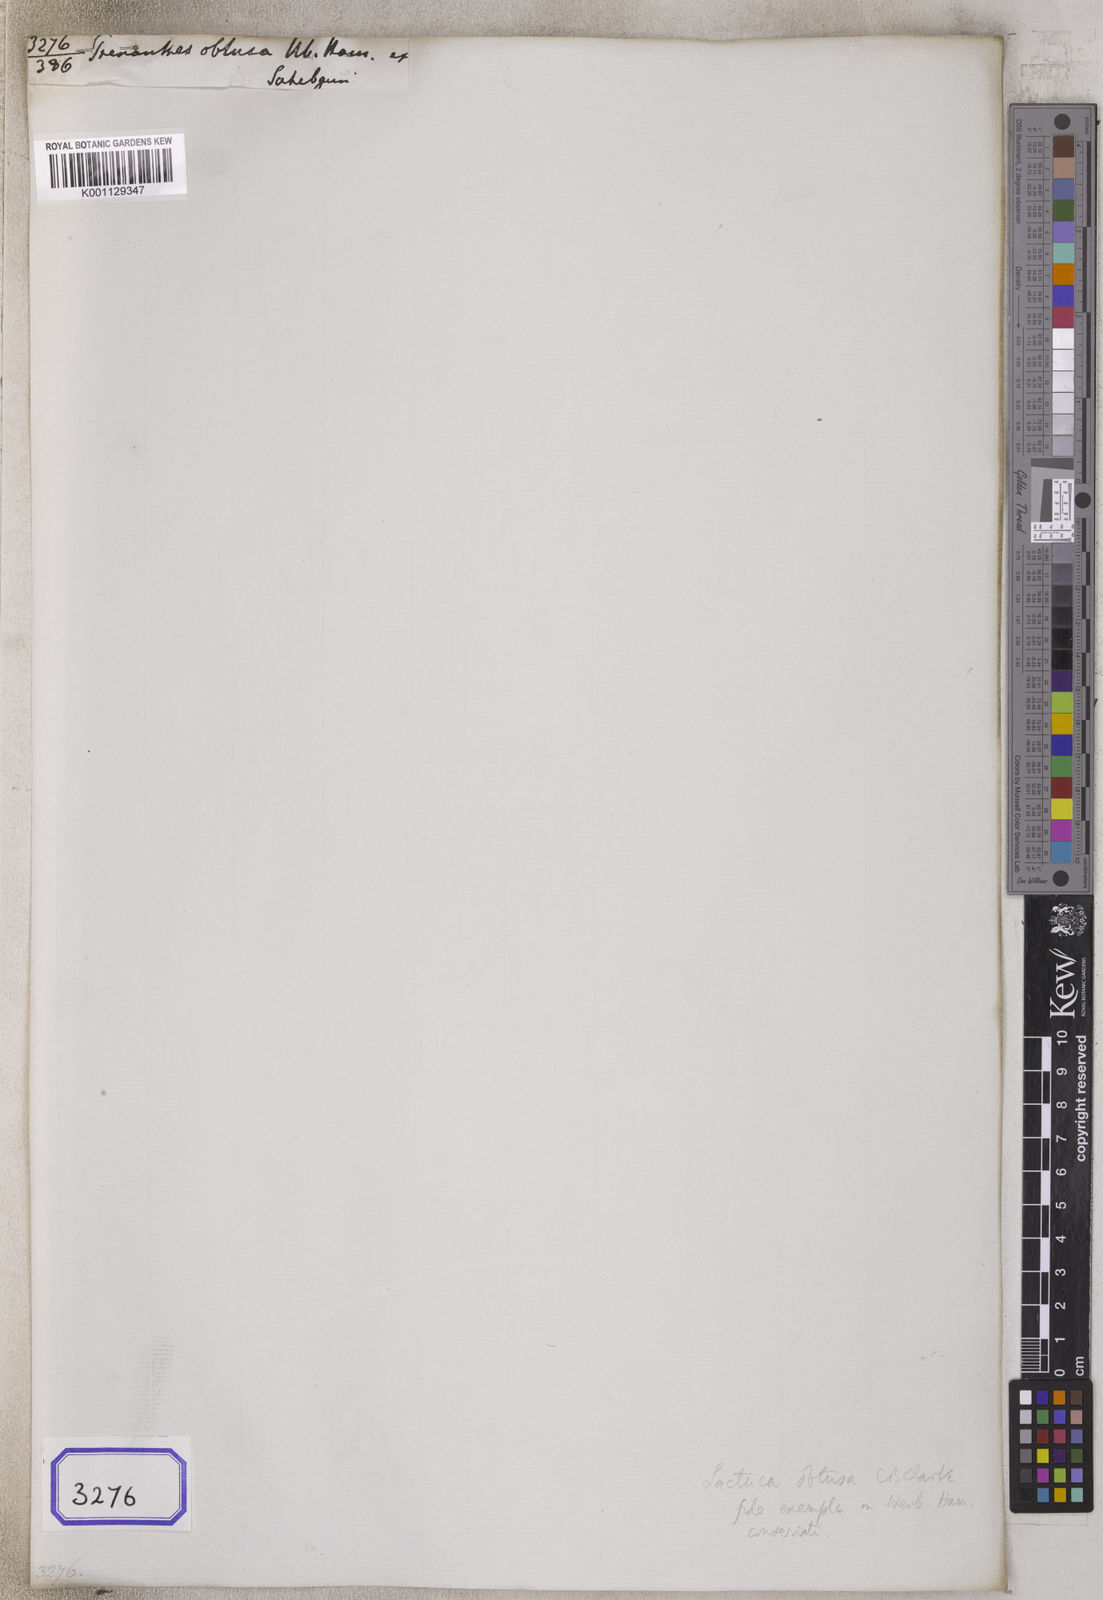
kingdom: Plantae
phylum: Tracheophyta
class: Magnoliopsida
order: Asterales
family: Asteraceae
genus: Launaea
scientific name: Launaea procumbens
